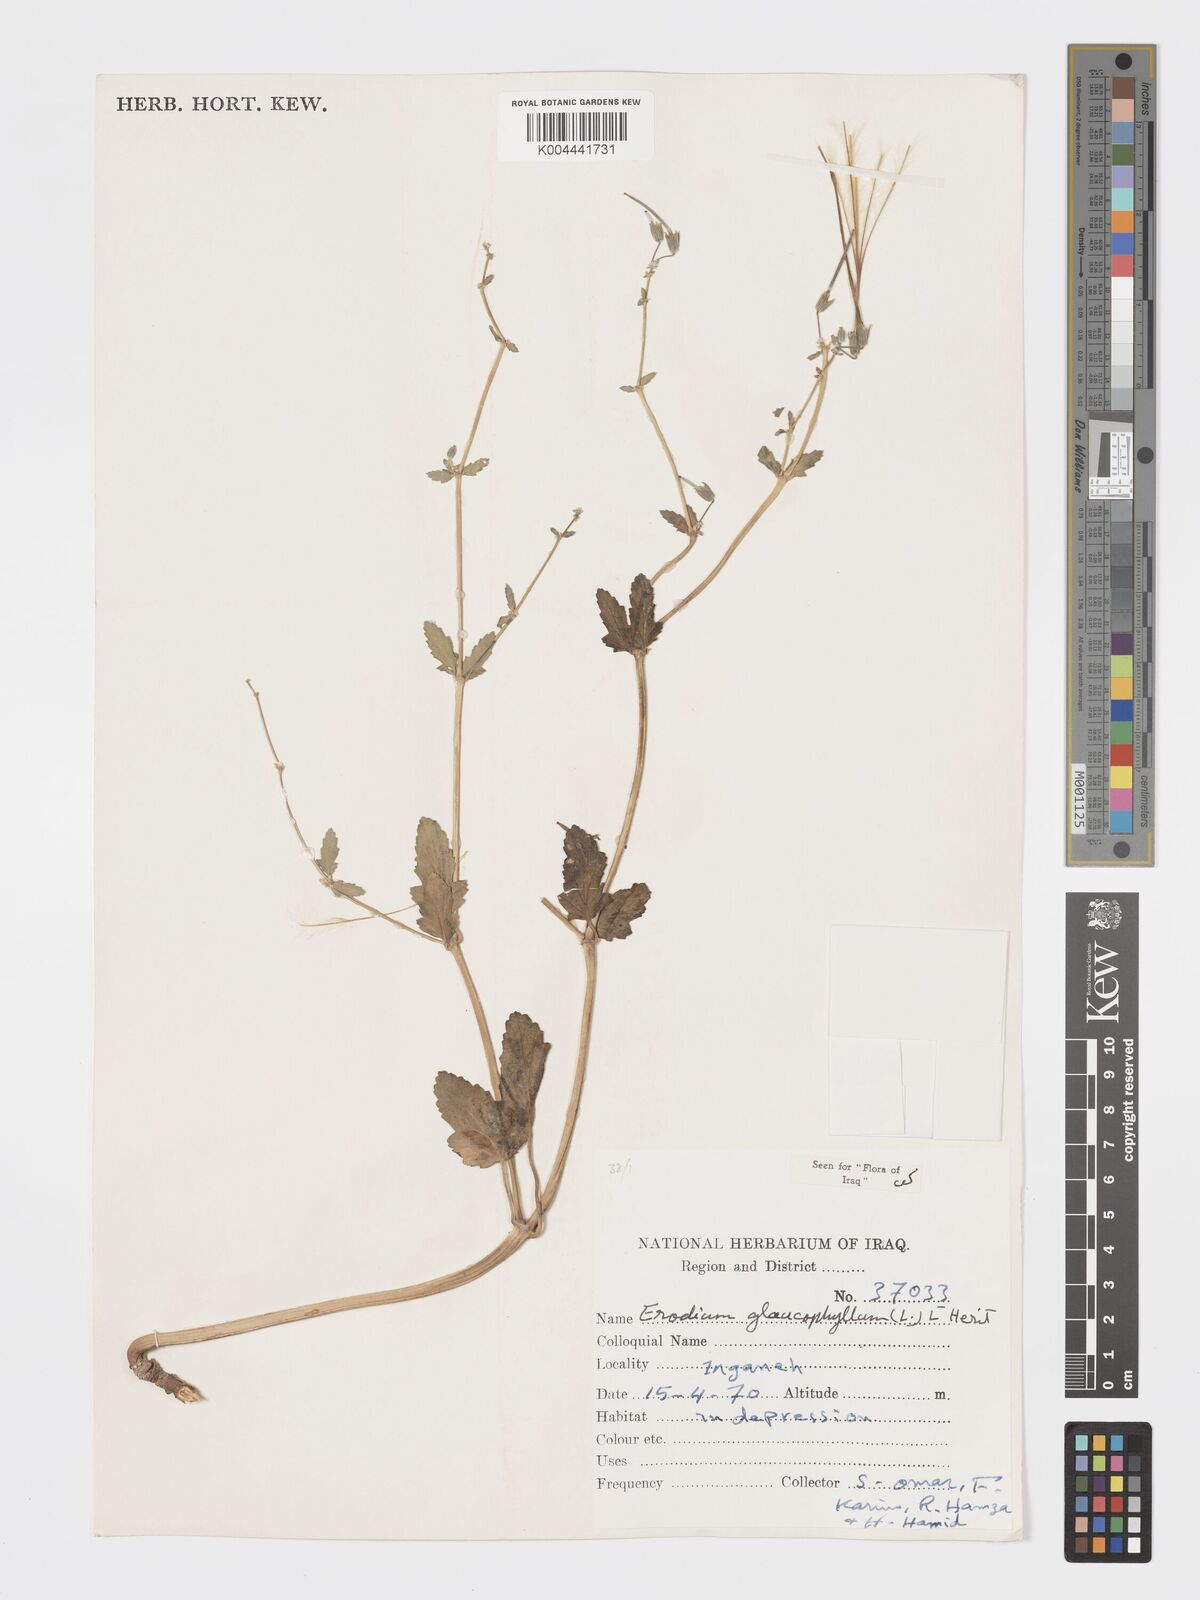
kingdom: Plantae
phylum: Tracheophyta
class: Magnoliopsida
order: Geraniales
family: Geraniaceae
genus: Erodium
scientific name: Erodium glaucophyllum
